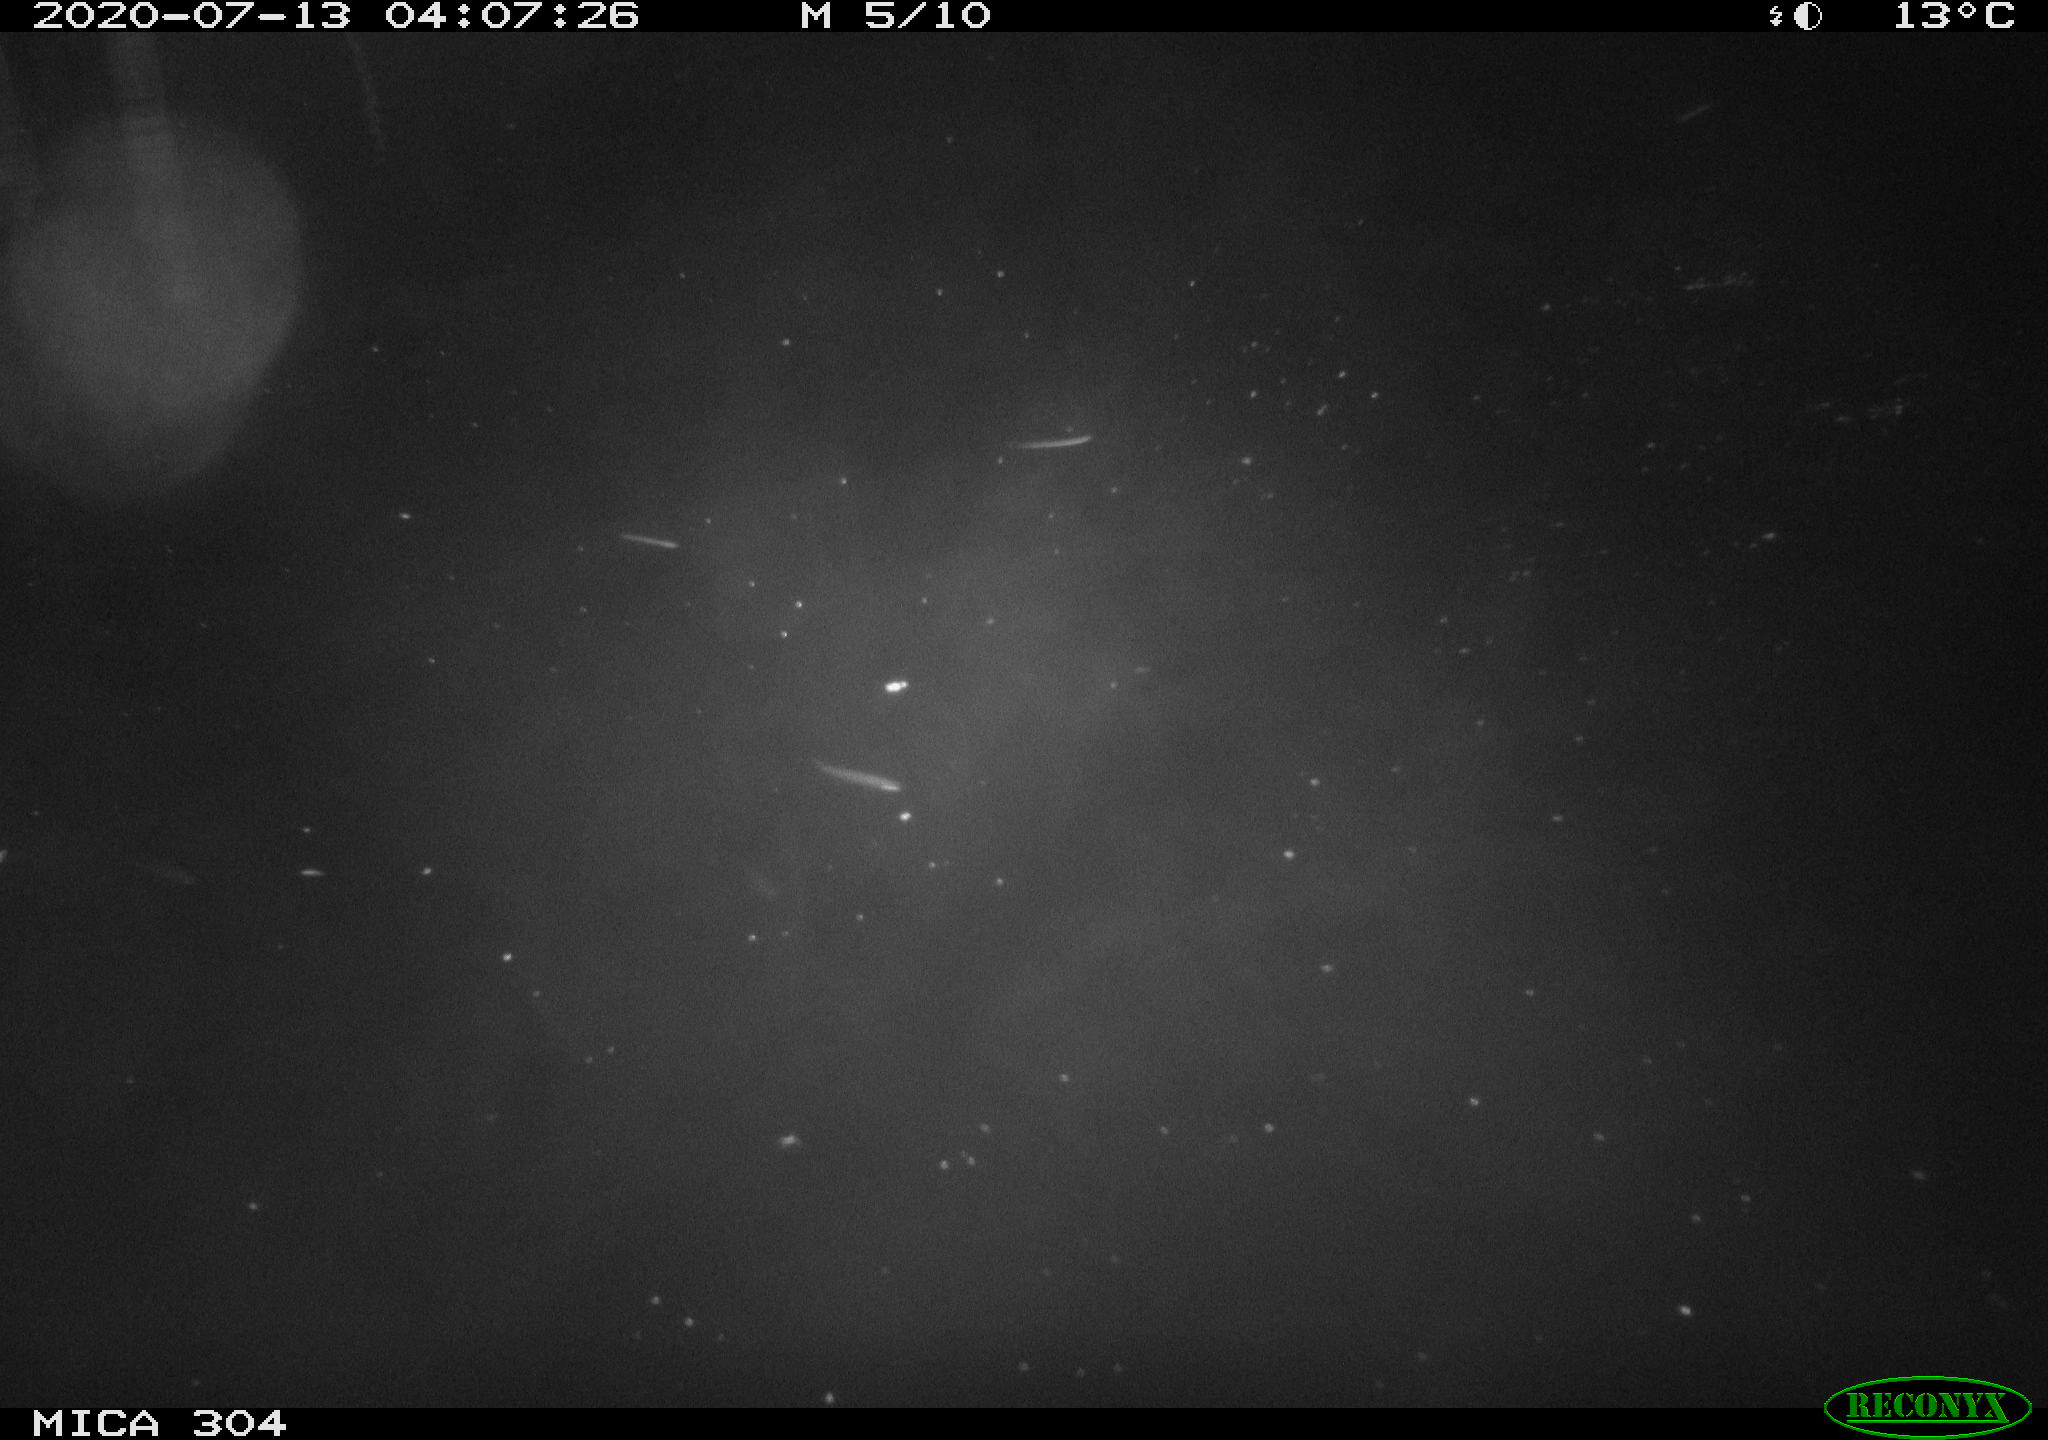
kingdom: Animalia
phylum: Chordata
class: Mammalia
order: Rodentia
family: Cricetidae
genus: Ondatra
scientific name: Ondatra zibethicus
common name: Muskrat
